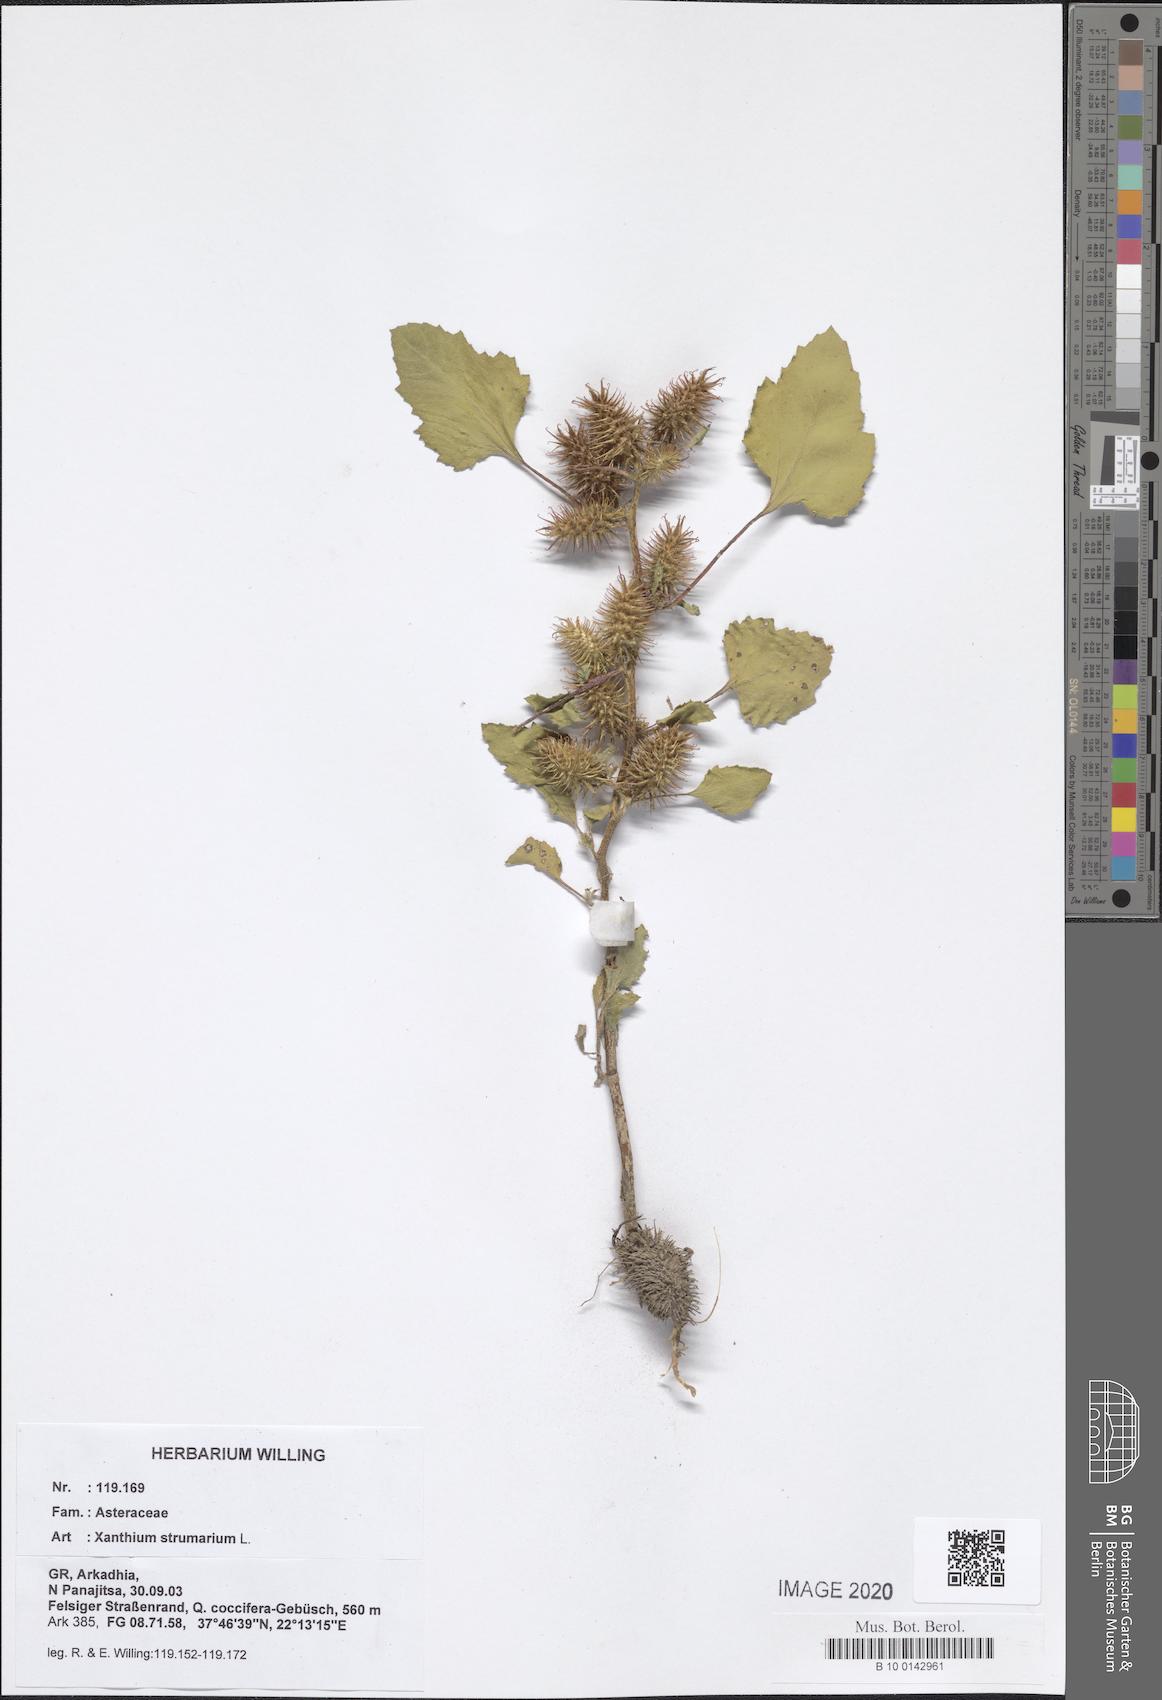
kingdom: Plantae
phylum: Tracheophyta
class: Magnoliopsida
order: Asterales
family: Asteraceae
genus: Xanthium
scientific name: Xanthium strumarium
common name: Rough cocklebur
